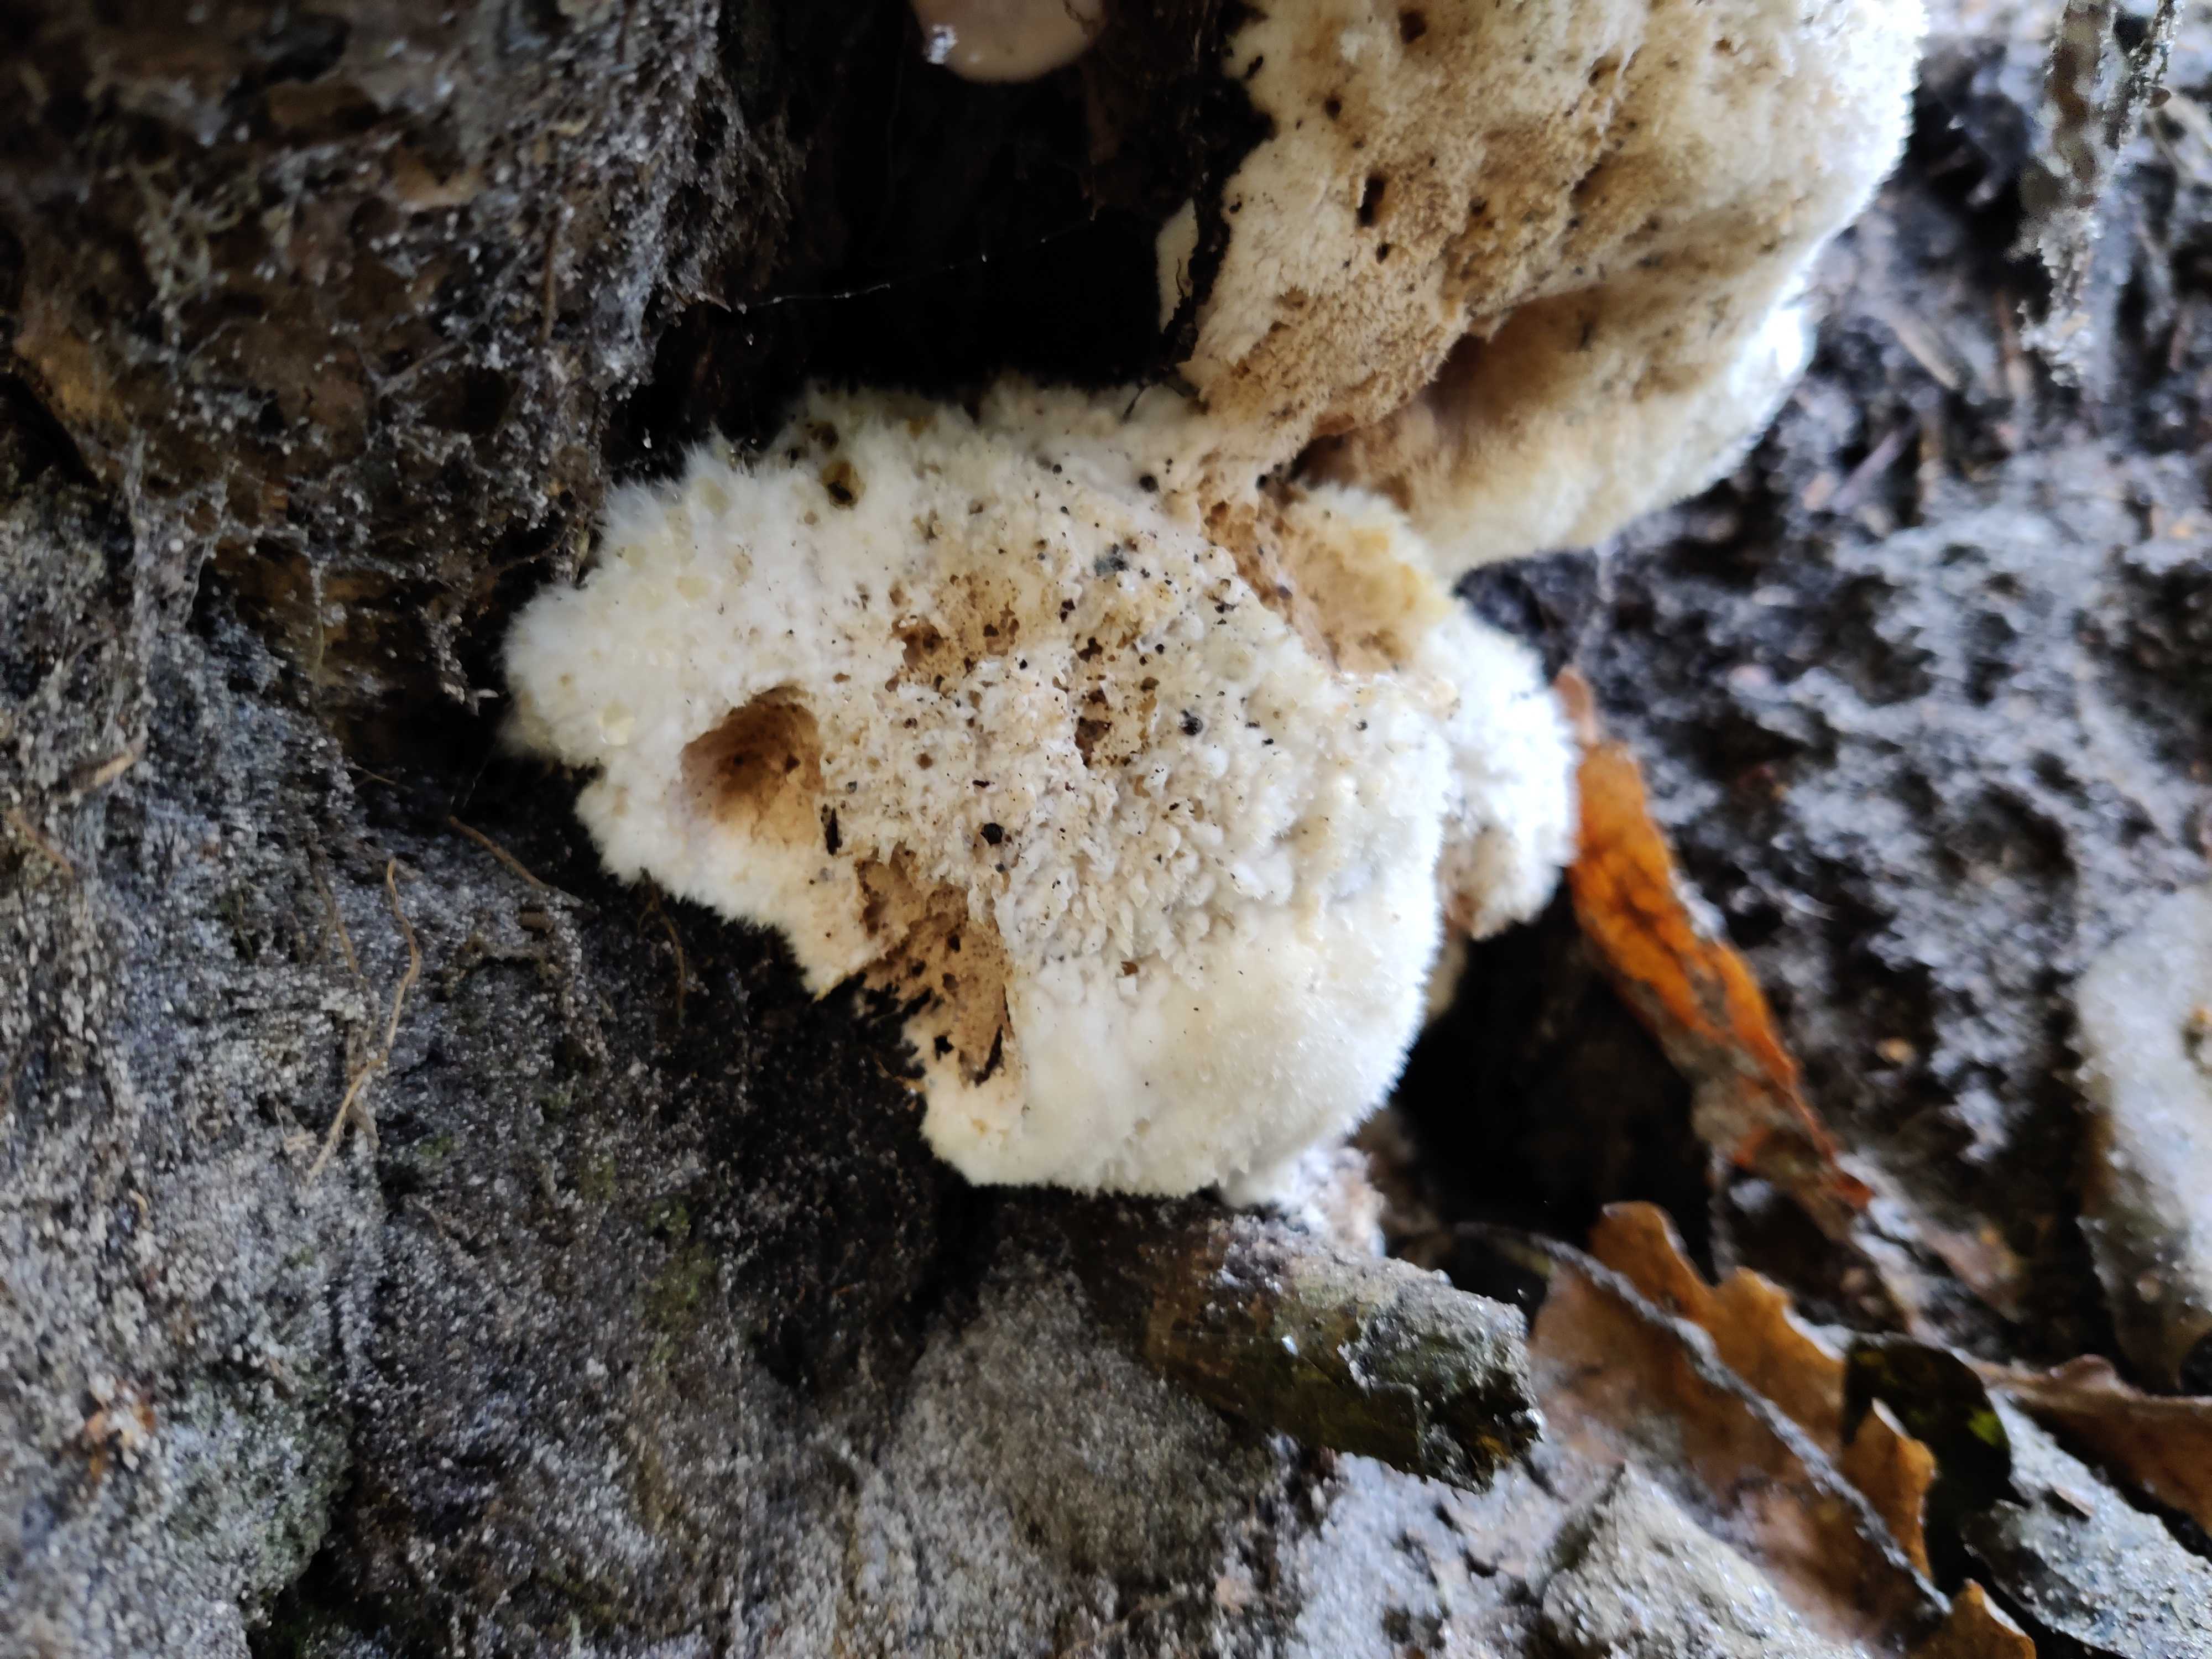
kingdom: Fungi
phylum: Basidiomycota
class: Agaricomycetes
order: Polyporales
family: Dacryobolaceae
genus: Postia
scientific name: Postia ptychogaster
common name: støvende kødporesvamp
